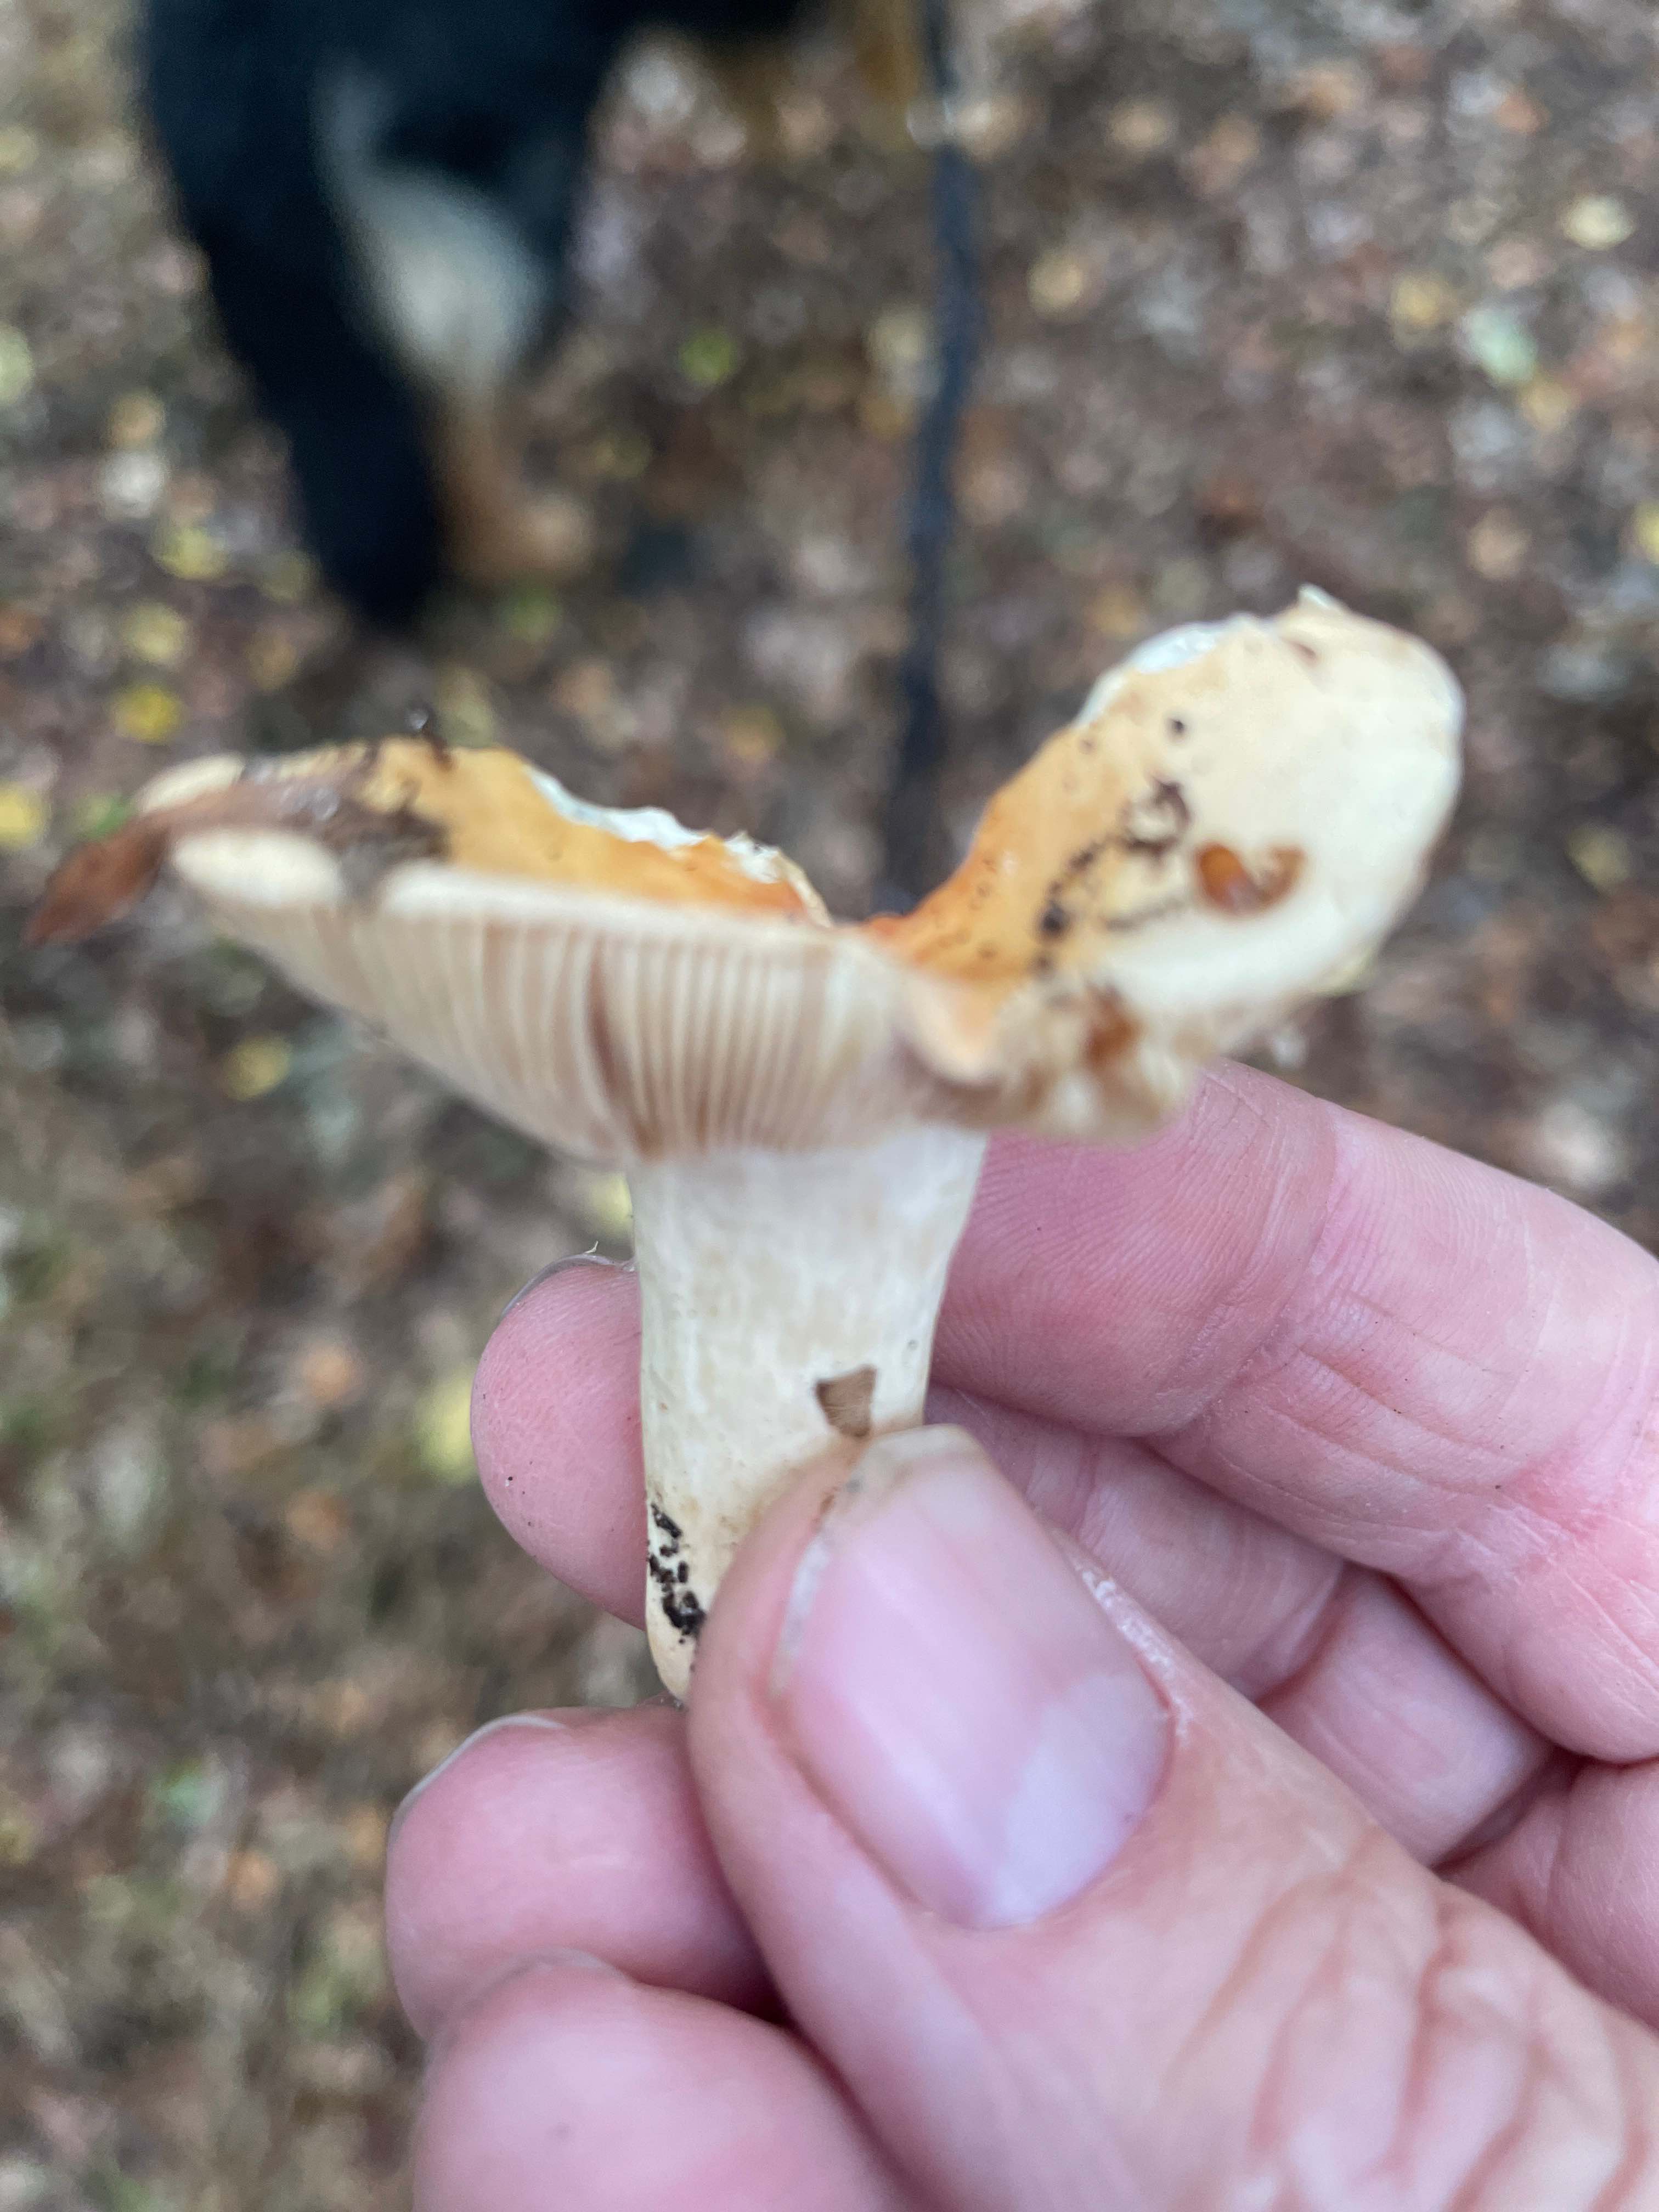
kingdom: Fungi
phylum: Basidiomycota
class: Agaricomycetes
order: Russulales
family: Russulaceae
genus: Russula
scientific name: Russula
